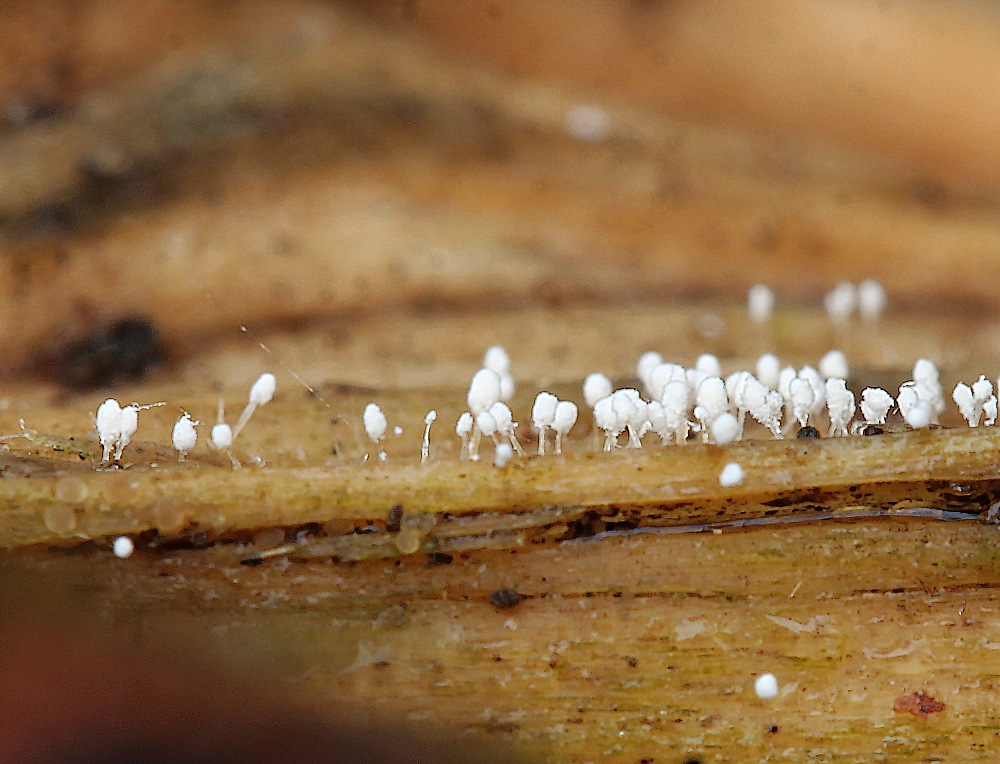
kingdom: Fungi
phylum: Ascomycota
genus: Sphaeridium
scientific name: Sphaeridium candidulum
